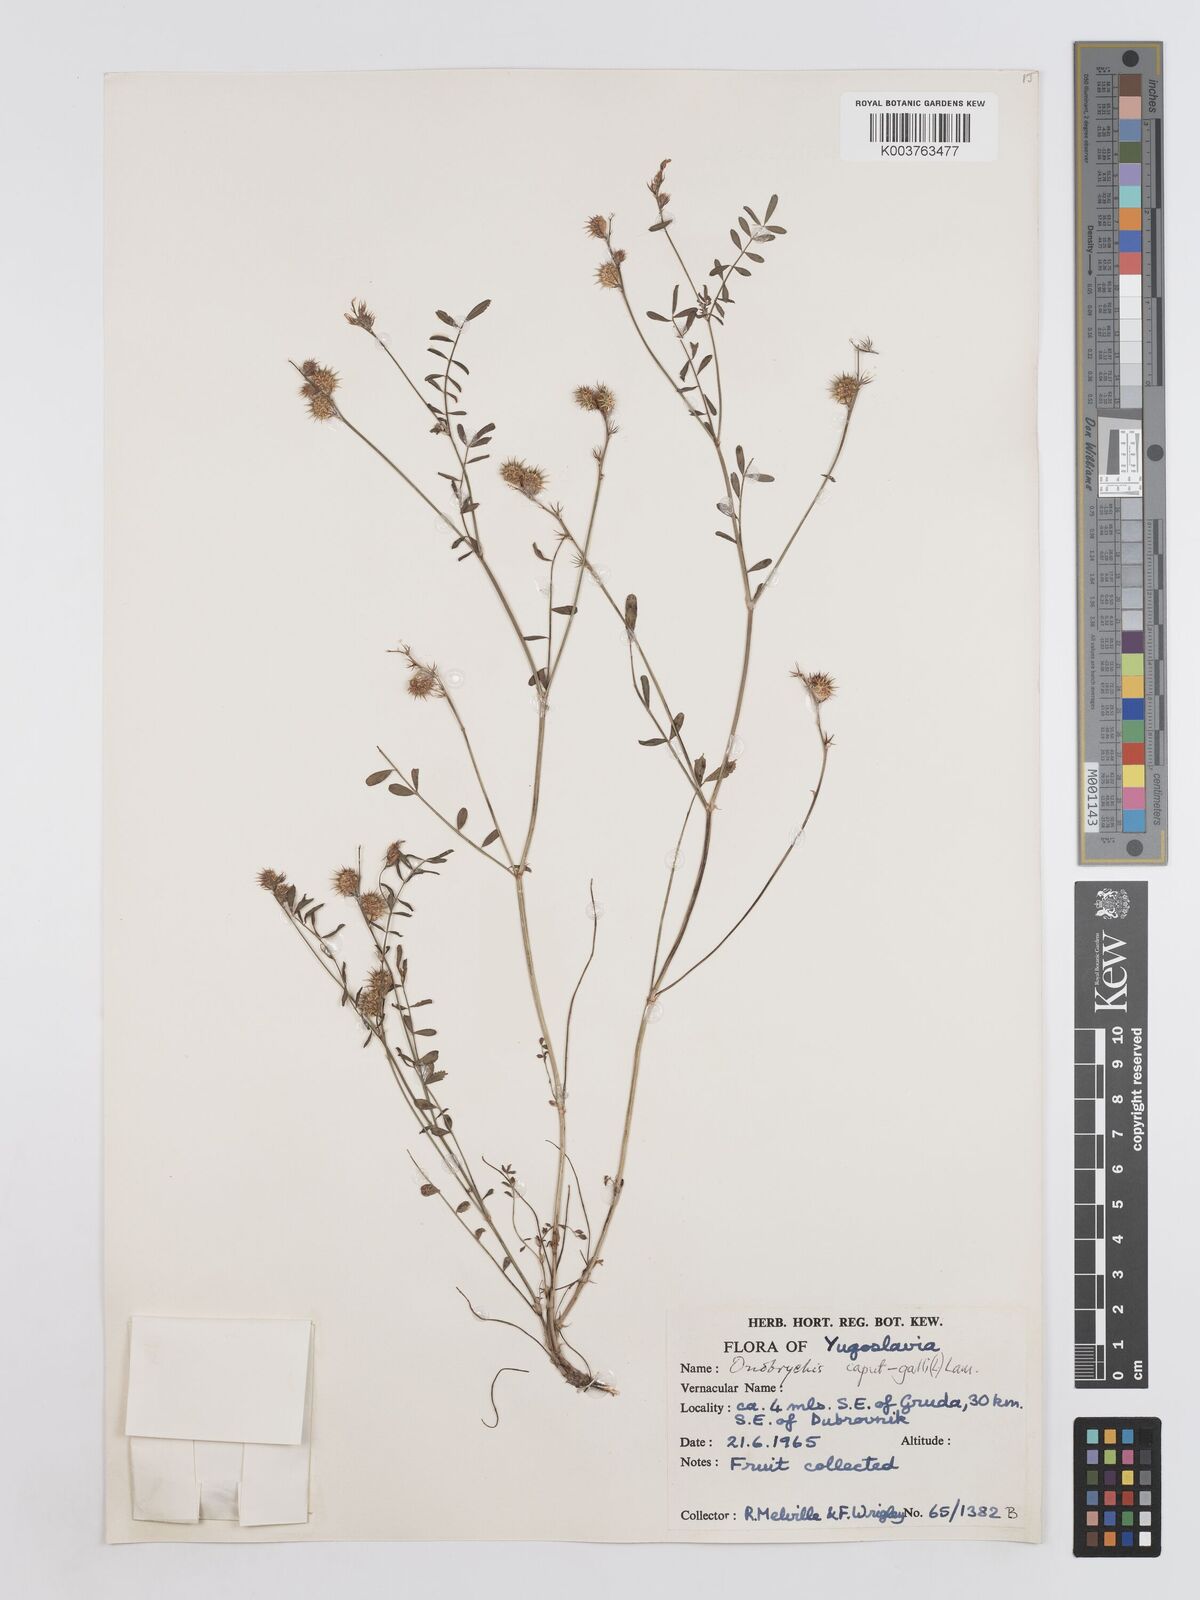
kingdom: Plantae
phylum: Tracheophyta
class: Magnoliopsida
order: Fabales
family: Fabaceae
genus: Onobrychis
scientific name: Onobrychis caput-galli
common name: Cockscomb sainfoin
